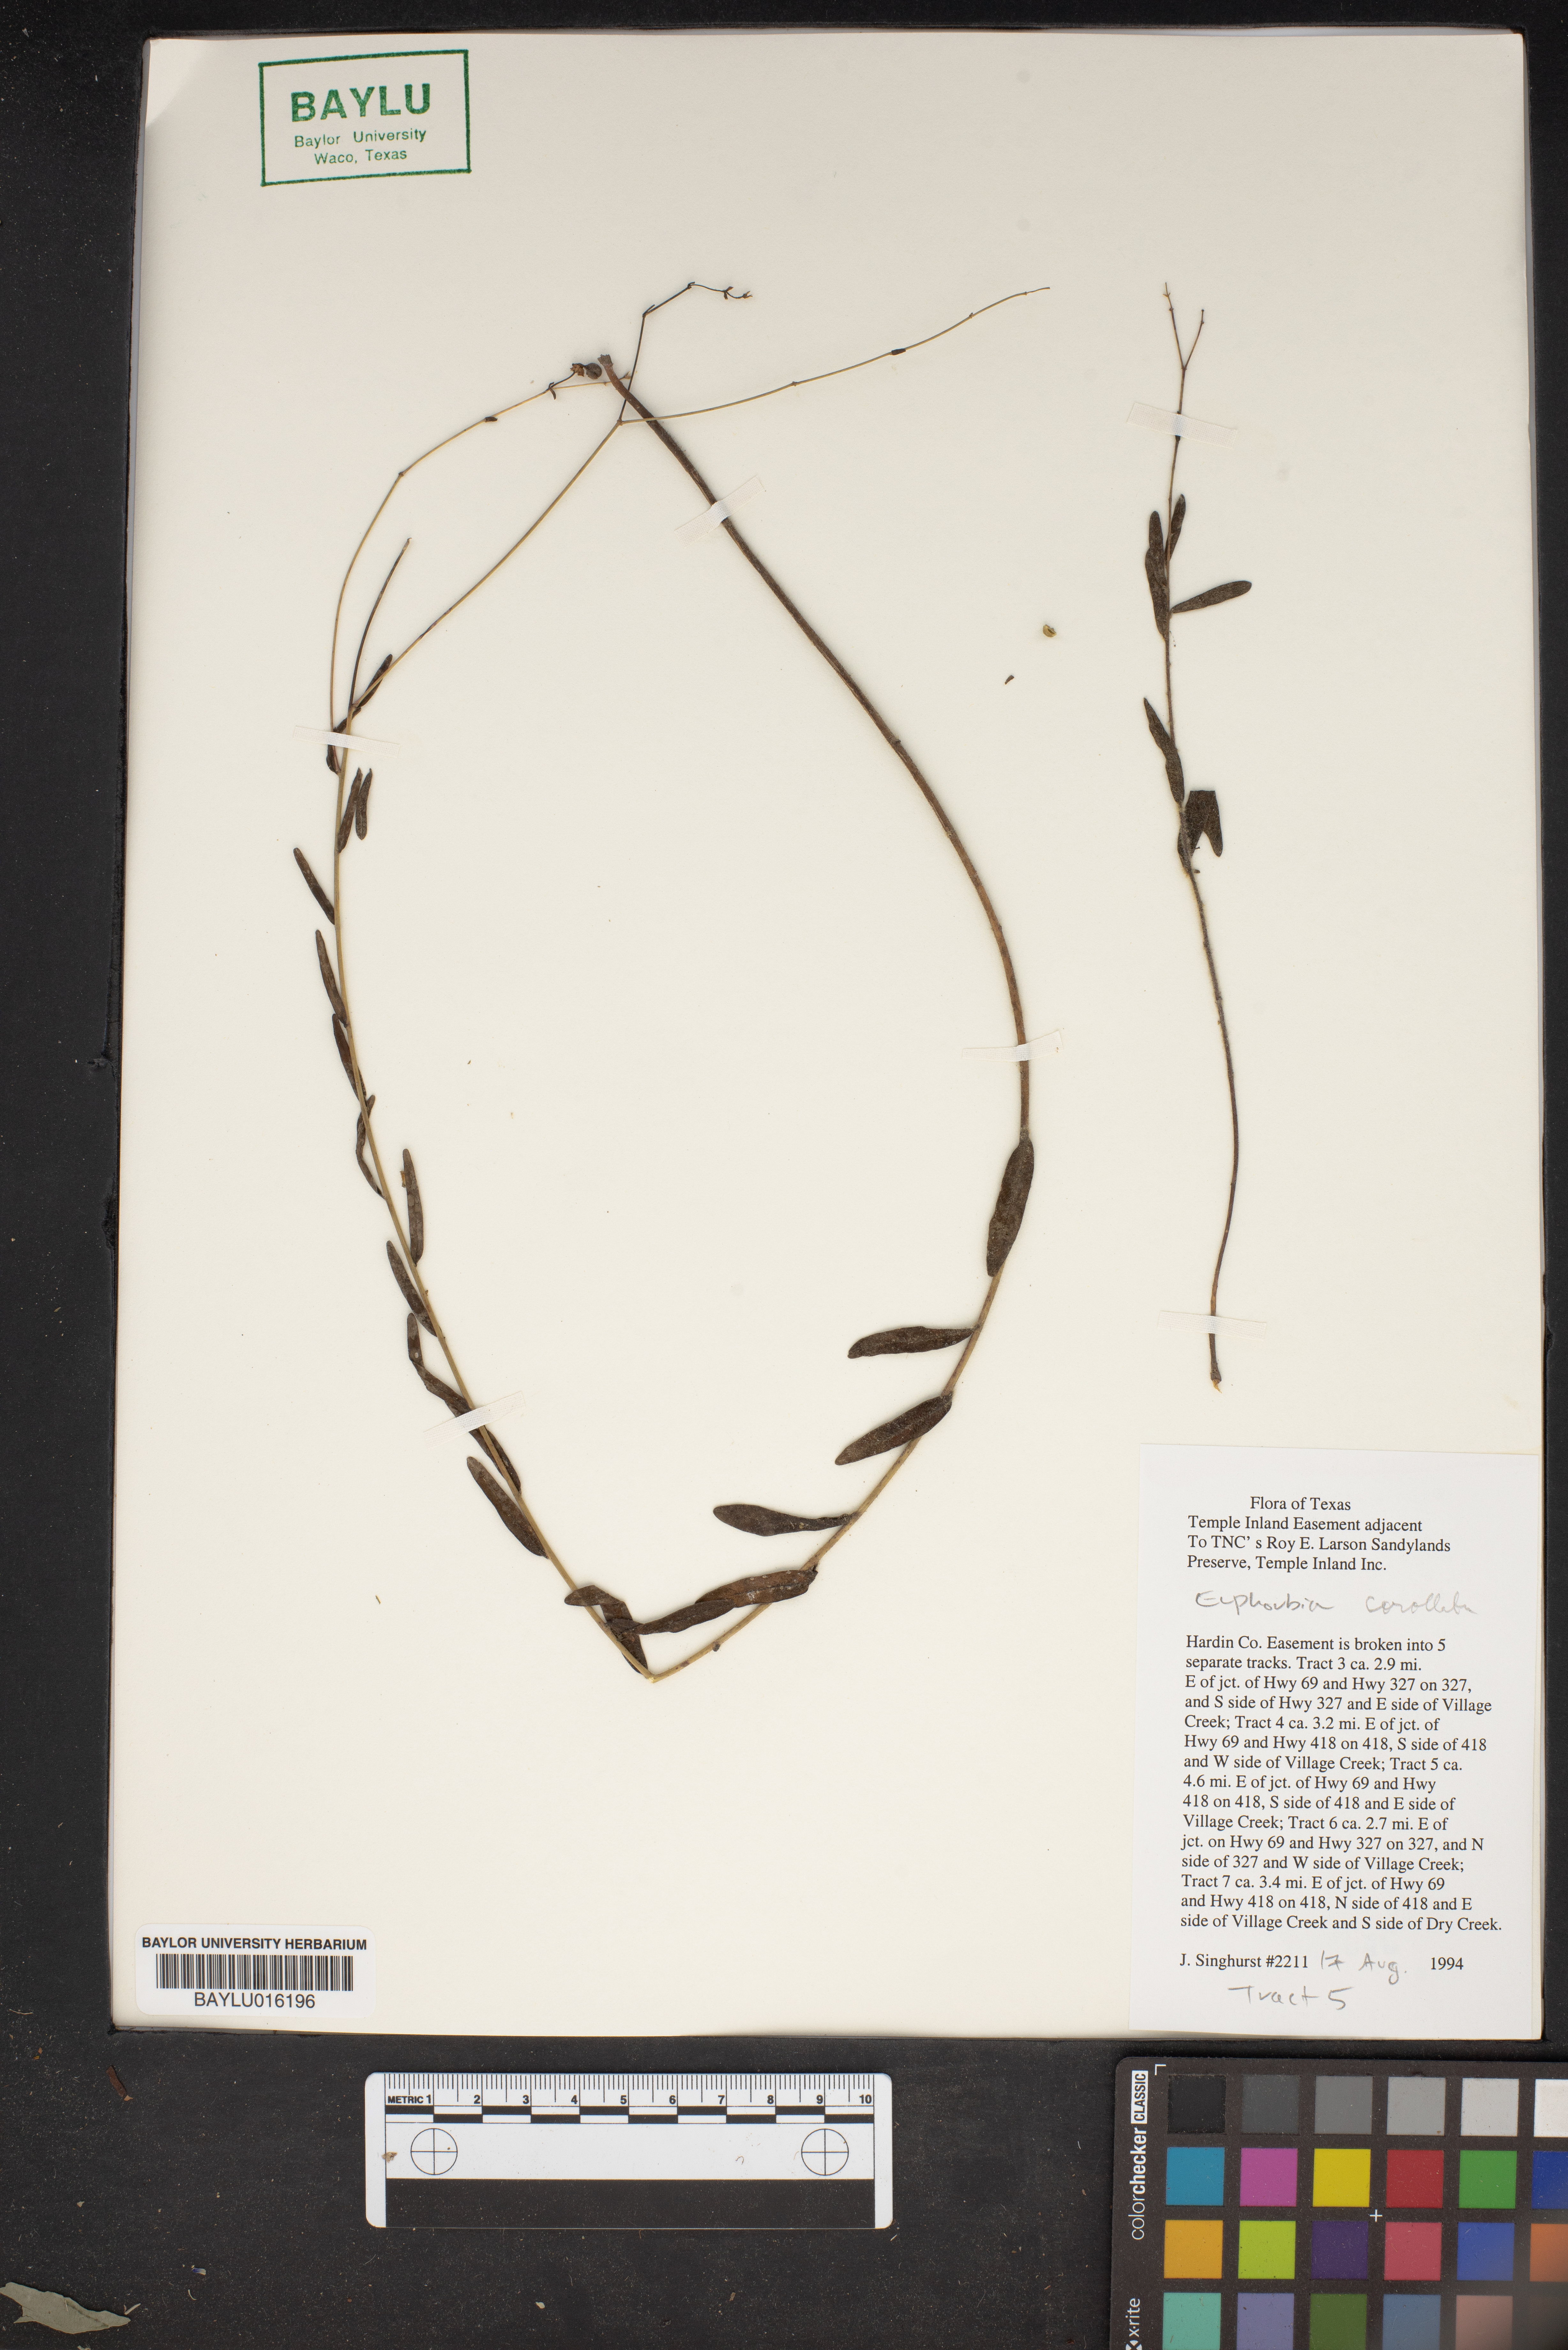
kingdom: Plantae
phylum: Tracheophyta
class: Magnoliopsida
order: Malpighiales
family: Euphorbiaceae
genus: Euphorbia
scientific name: Euphorbia corollata
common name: Flowering spurge
